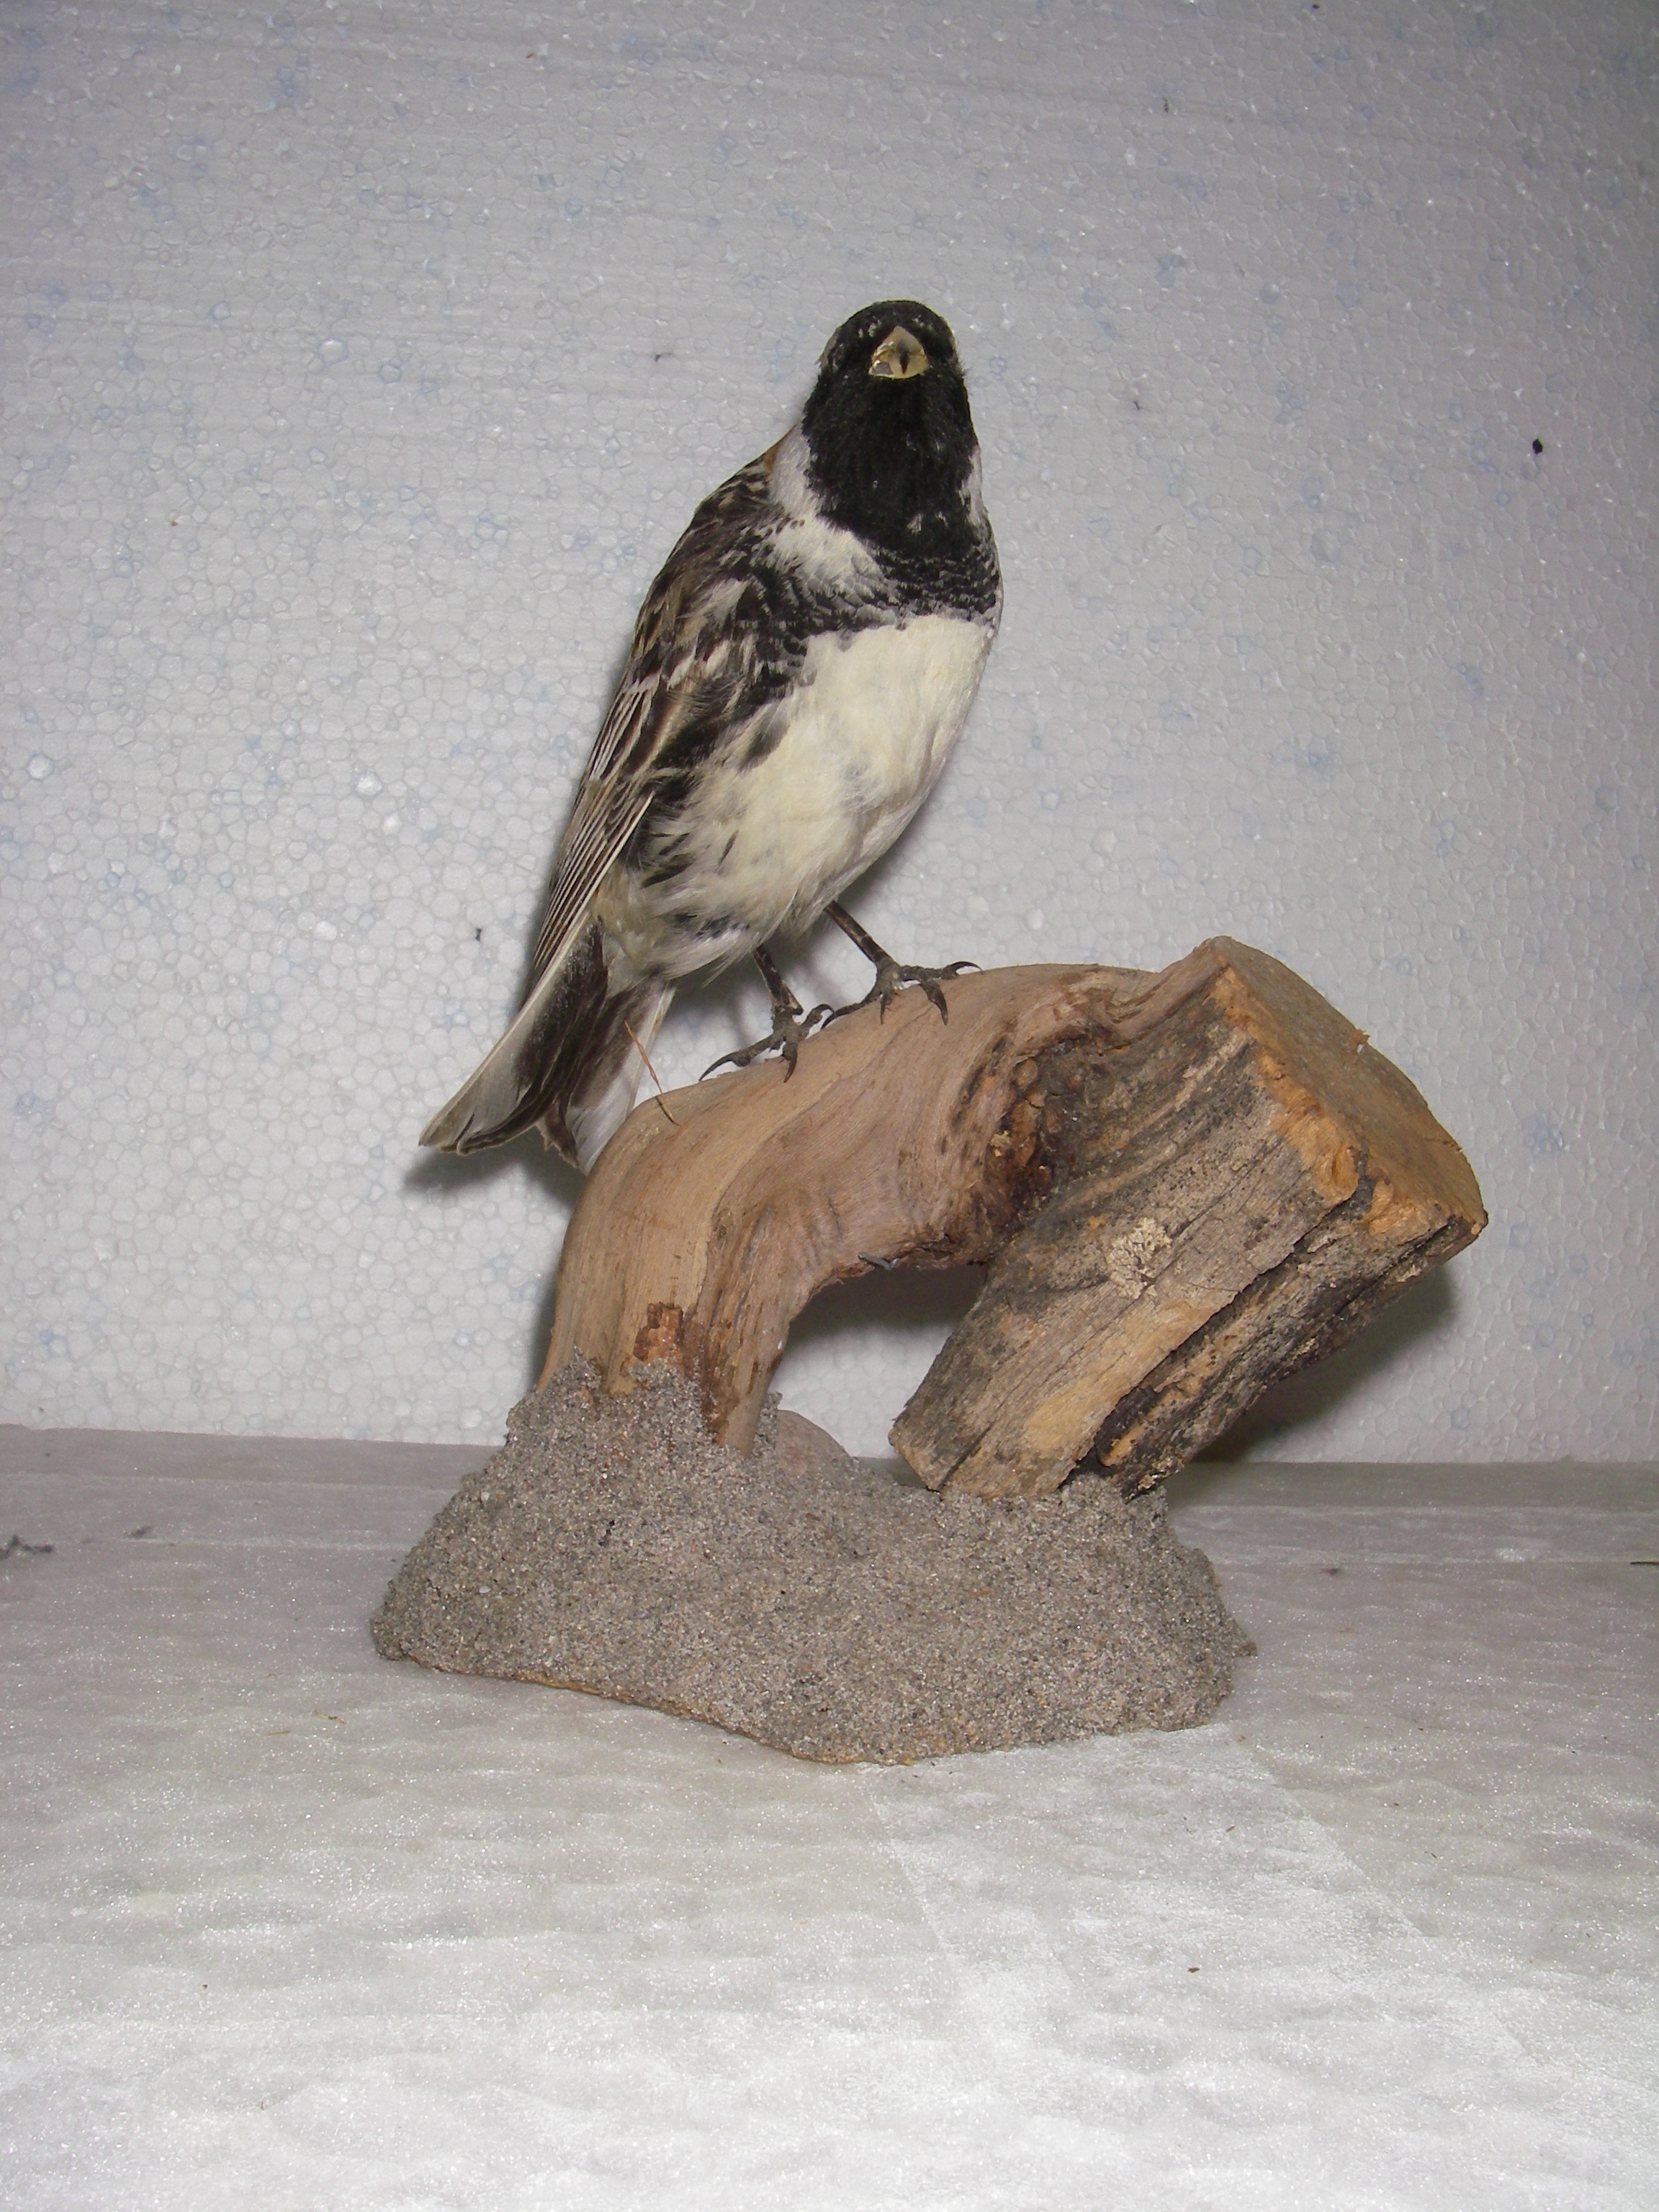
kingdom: Animalia
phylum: Chordata
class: Aves
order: Passeriformes
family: Calcariidae
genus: Calcarius
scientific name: Calcarius lapponicus
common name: Lapland longspur
